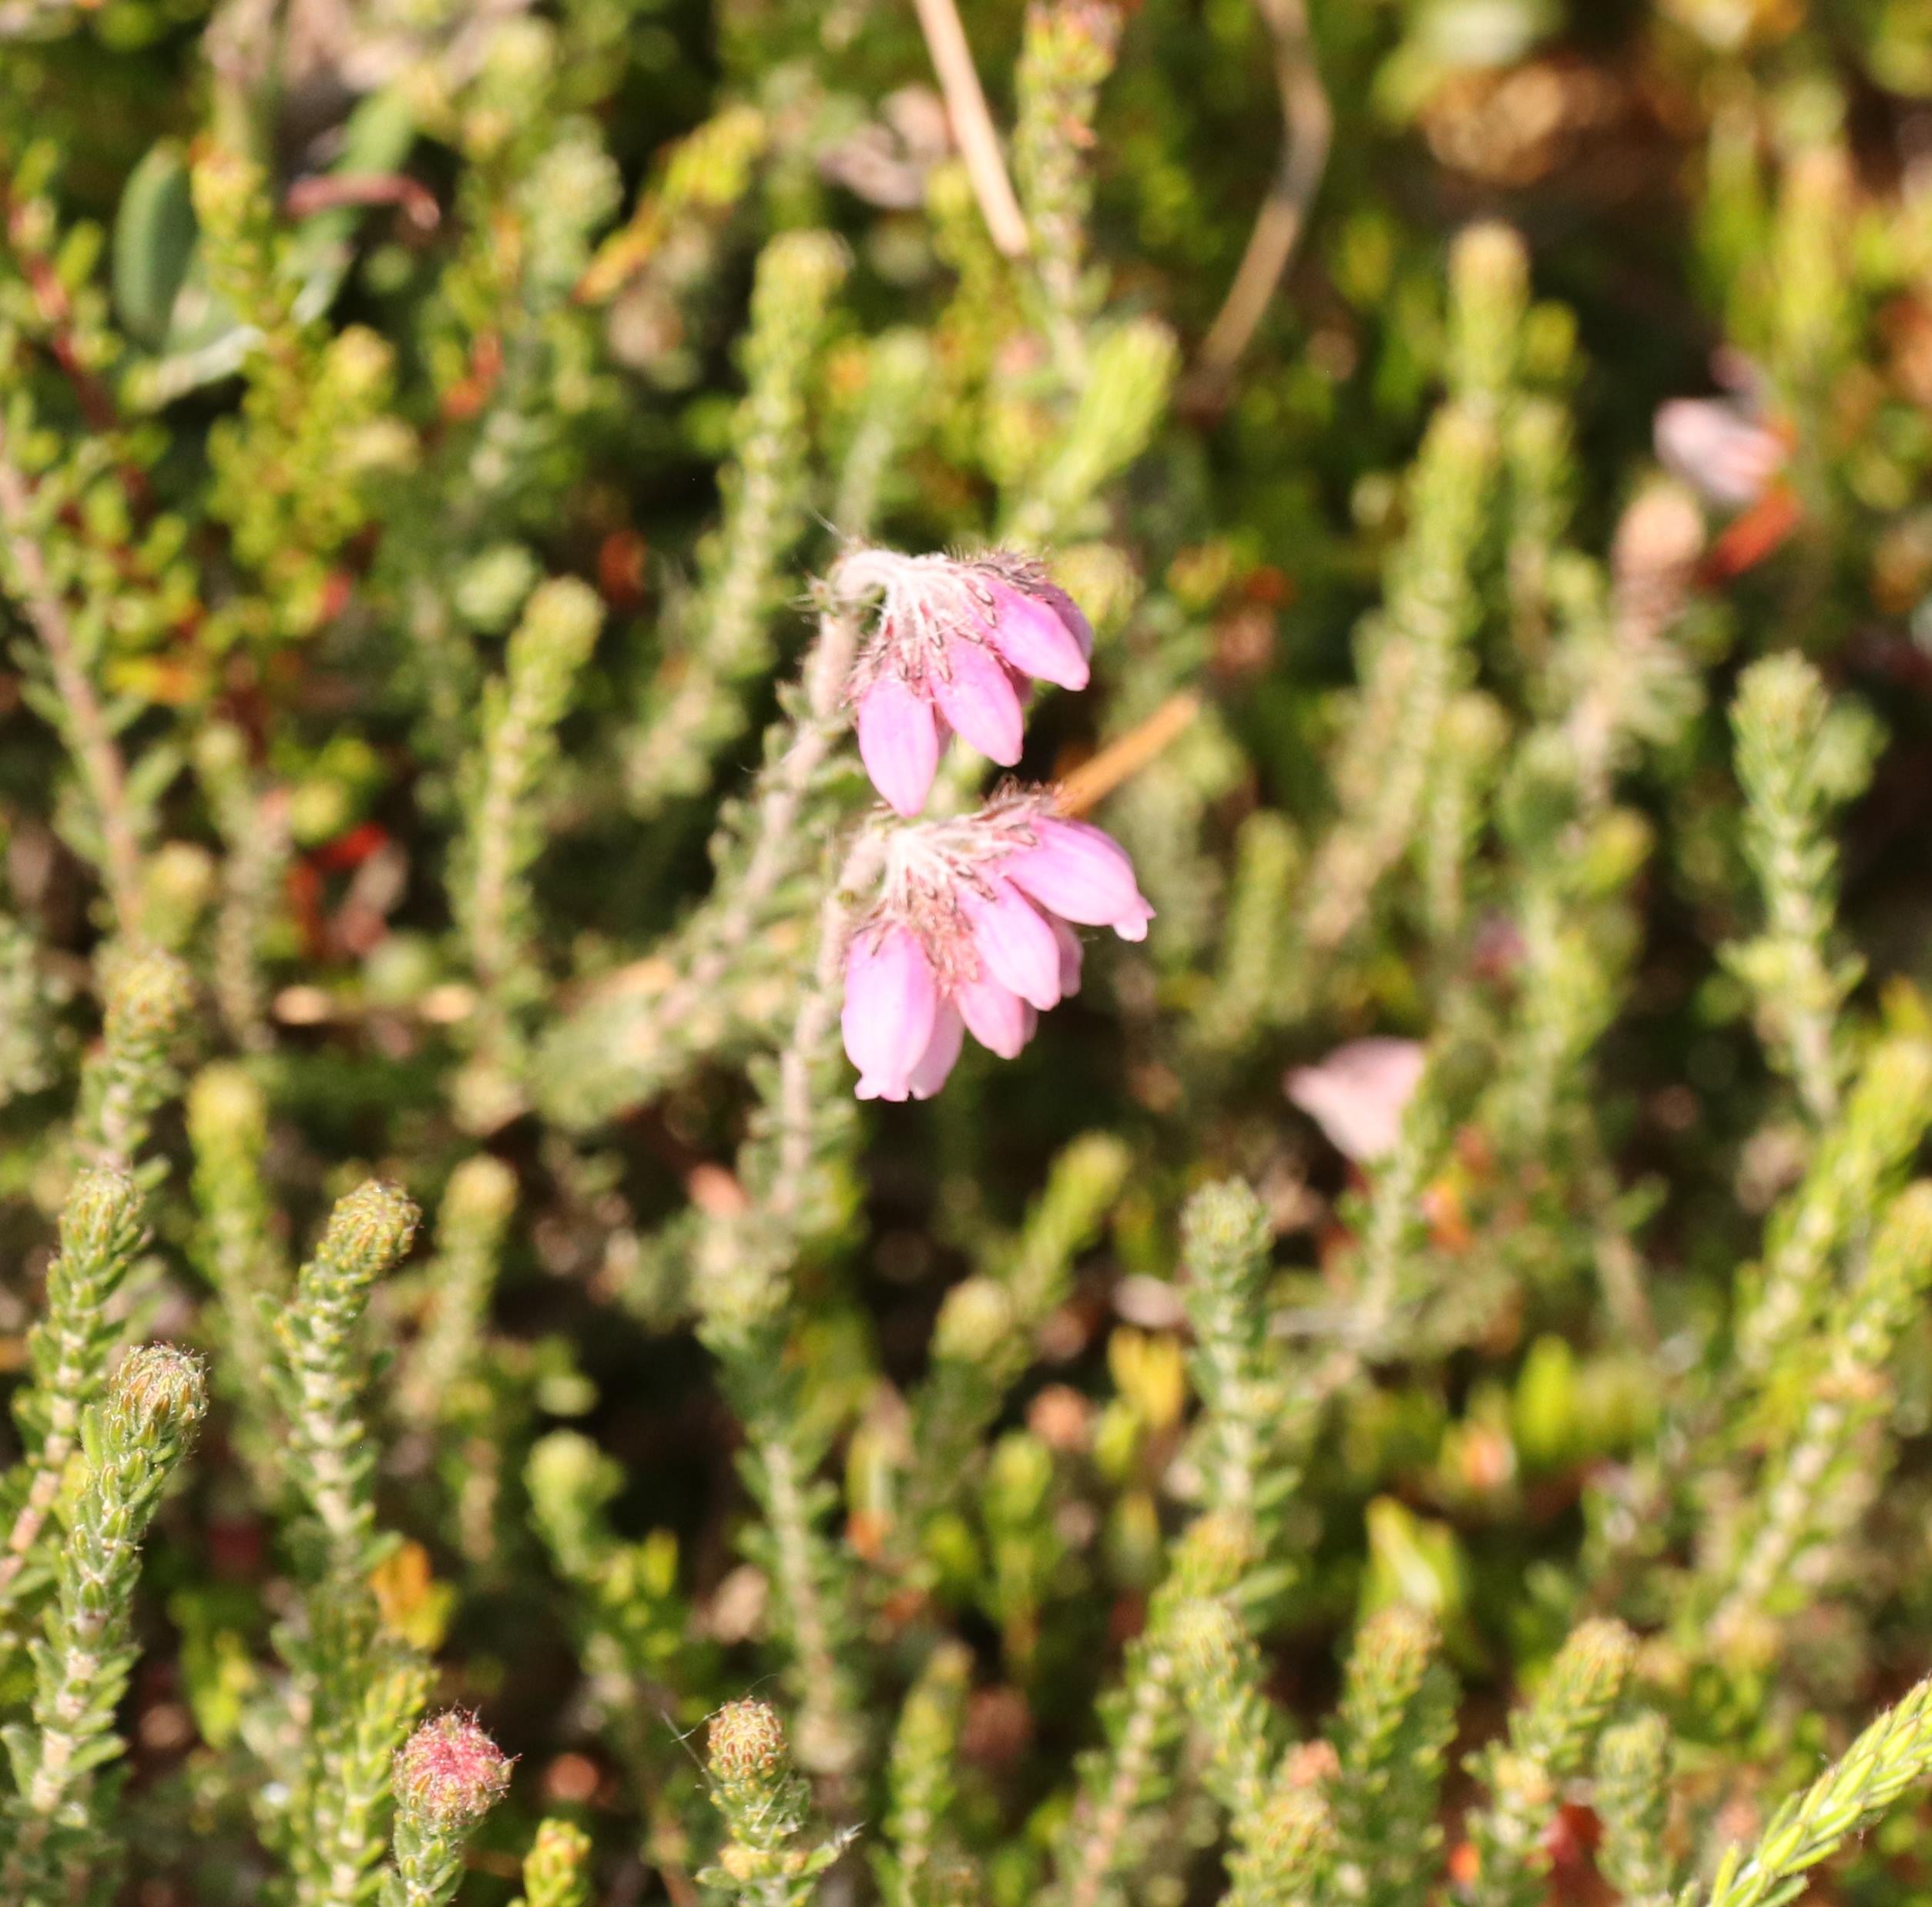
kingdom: Plantae
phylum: Tracheophyta
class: Magnoliopsida
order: Ericales
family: Ericaceae
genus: Erica
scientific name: Erica tetralix
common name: Klokkelyng
